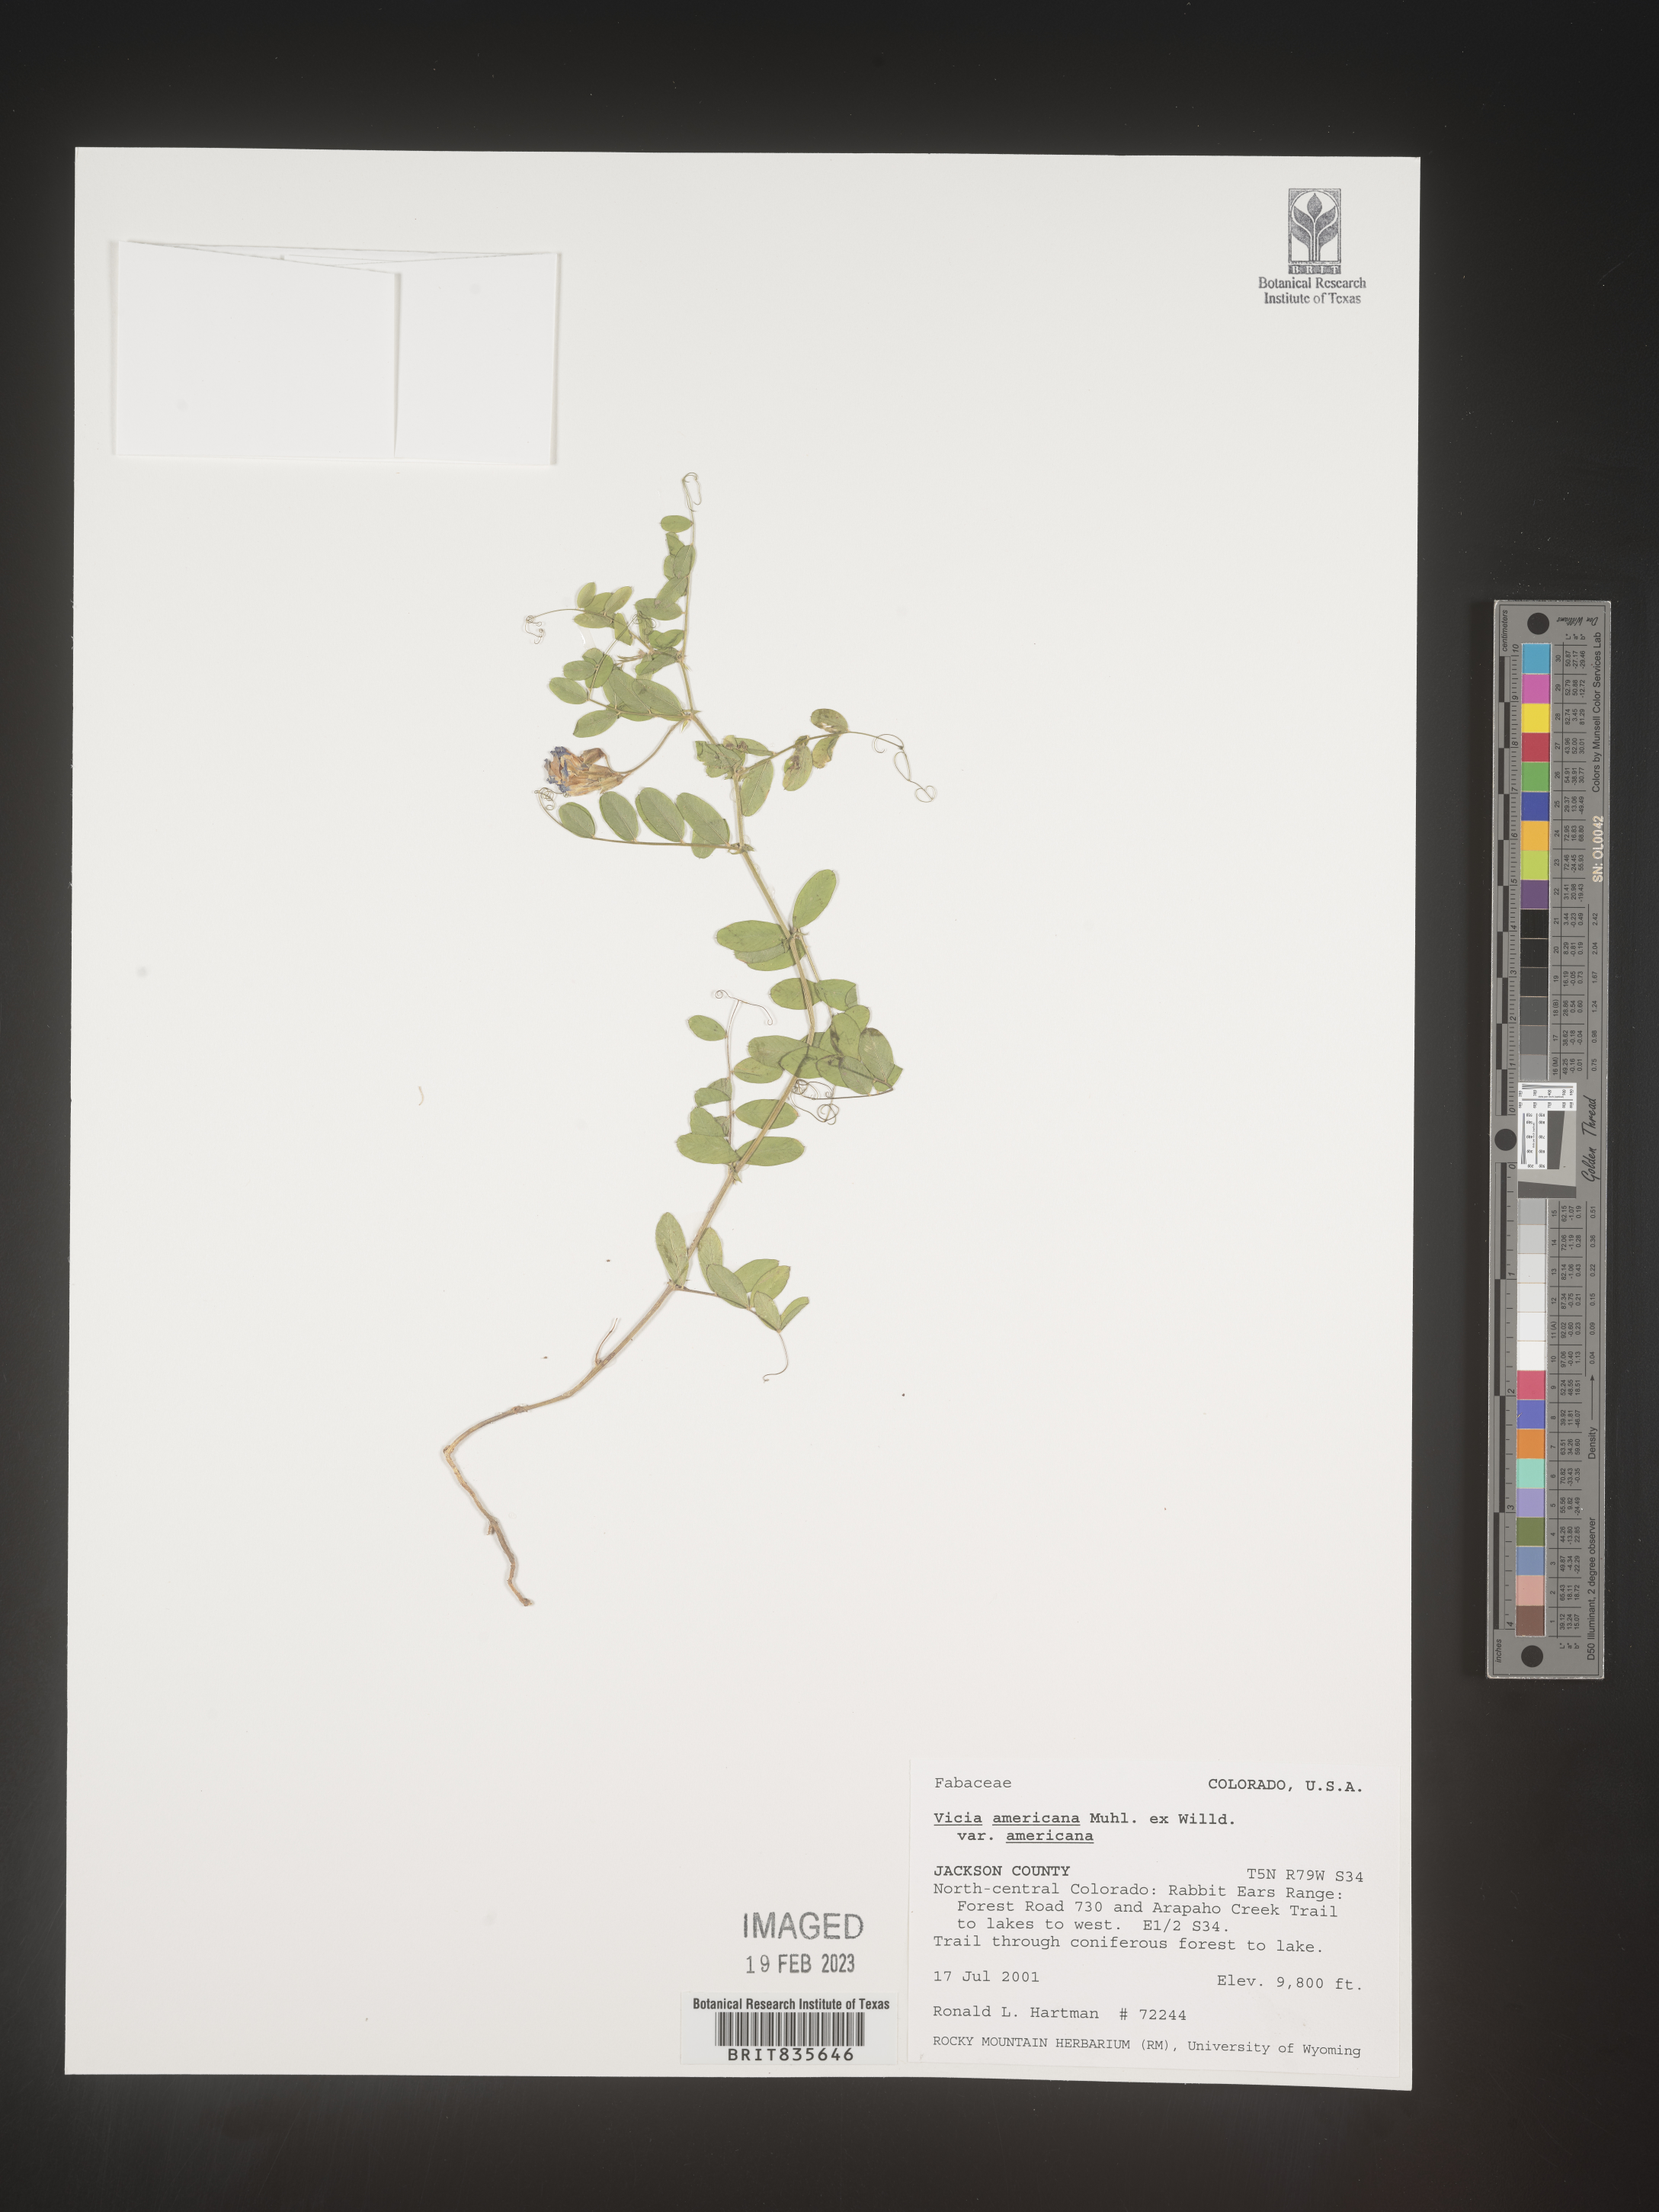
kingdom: Plantae
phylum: Tracheophyta
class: Magnoliopsida
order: Fabales
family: Fabaceae
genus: Vicia
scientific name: Vicia americana
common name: American vetch
